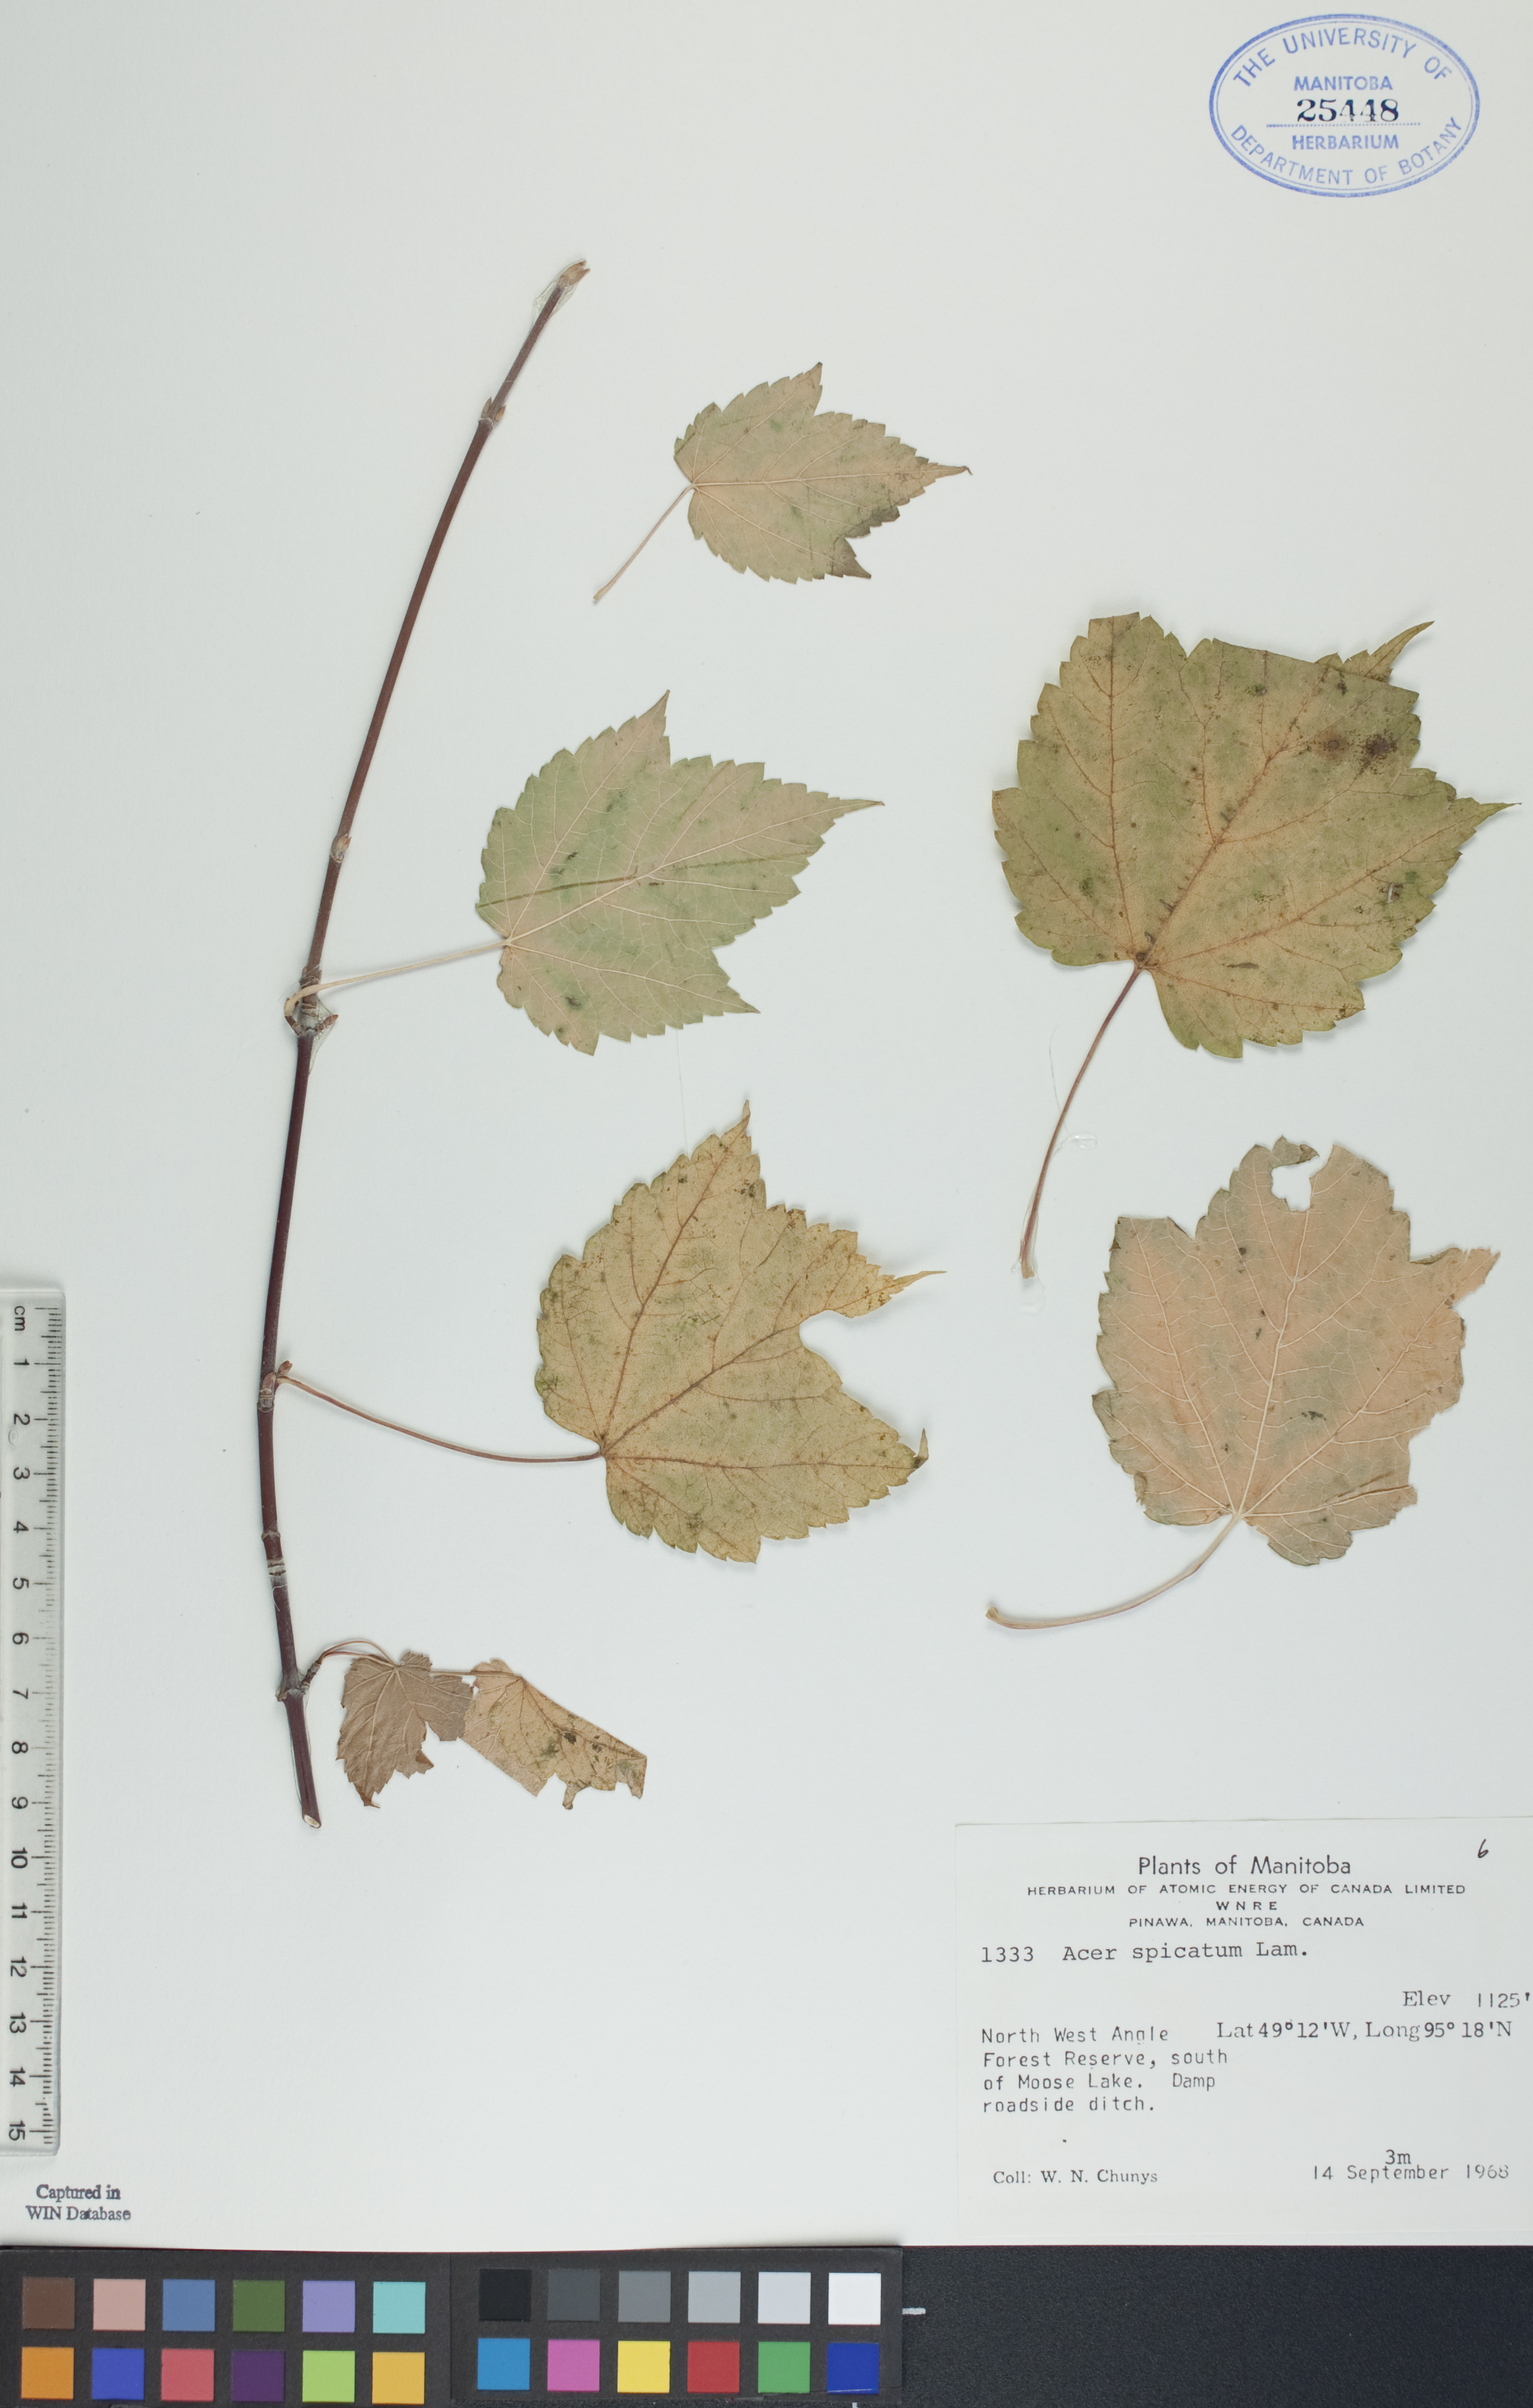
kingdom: Plantae
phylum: Tracheophyta
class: Magnoliopsida
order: Sapindales
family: Sapindaceae
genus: Acer
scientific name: Acer spicatum
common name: Mountain maple
